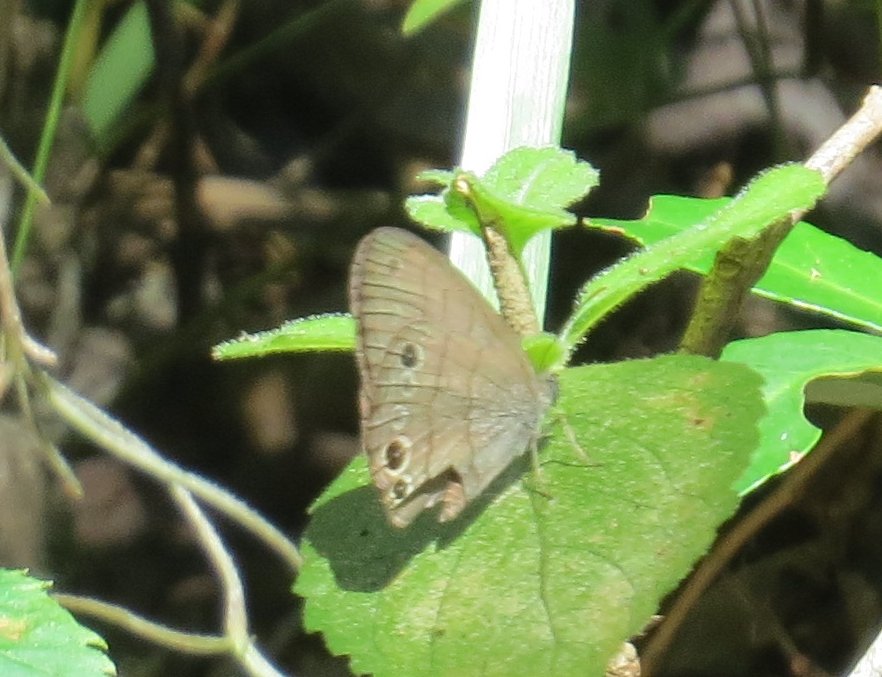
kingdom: Animalia
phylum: Arthropoda
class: Insecta
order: Lepidoptera
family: Nymphalidae
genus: Hermeuptychia
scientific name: Hermeuptychia intricata
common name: Intricate Satyr
